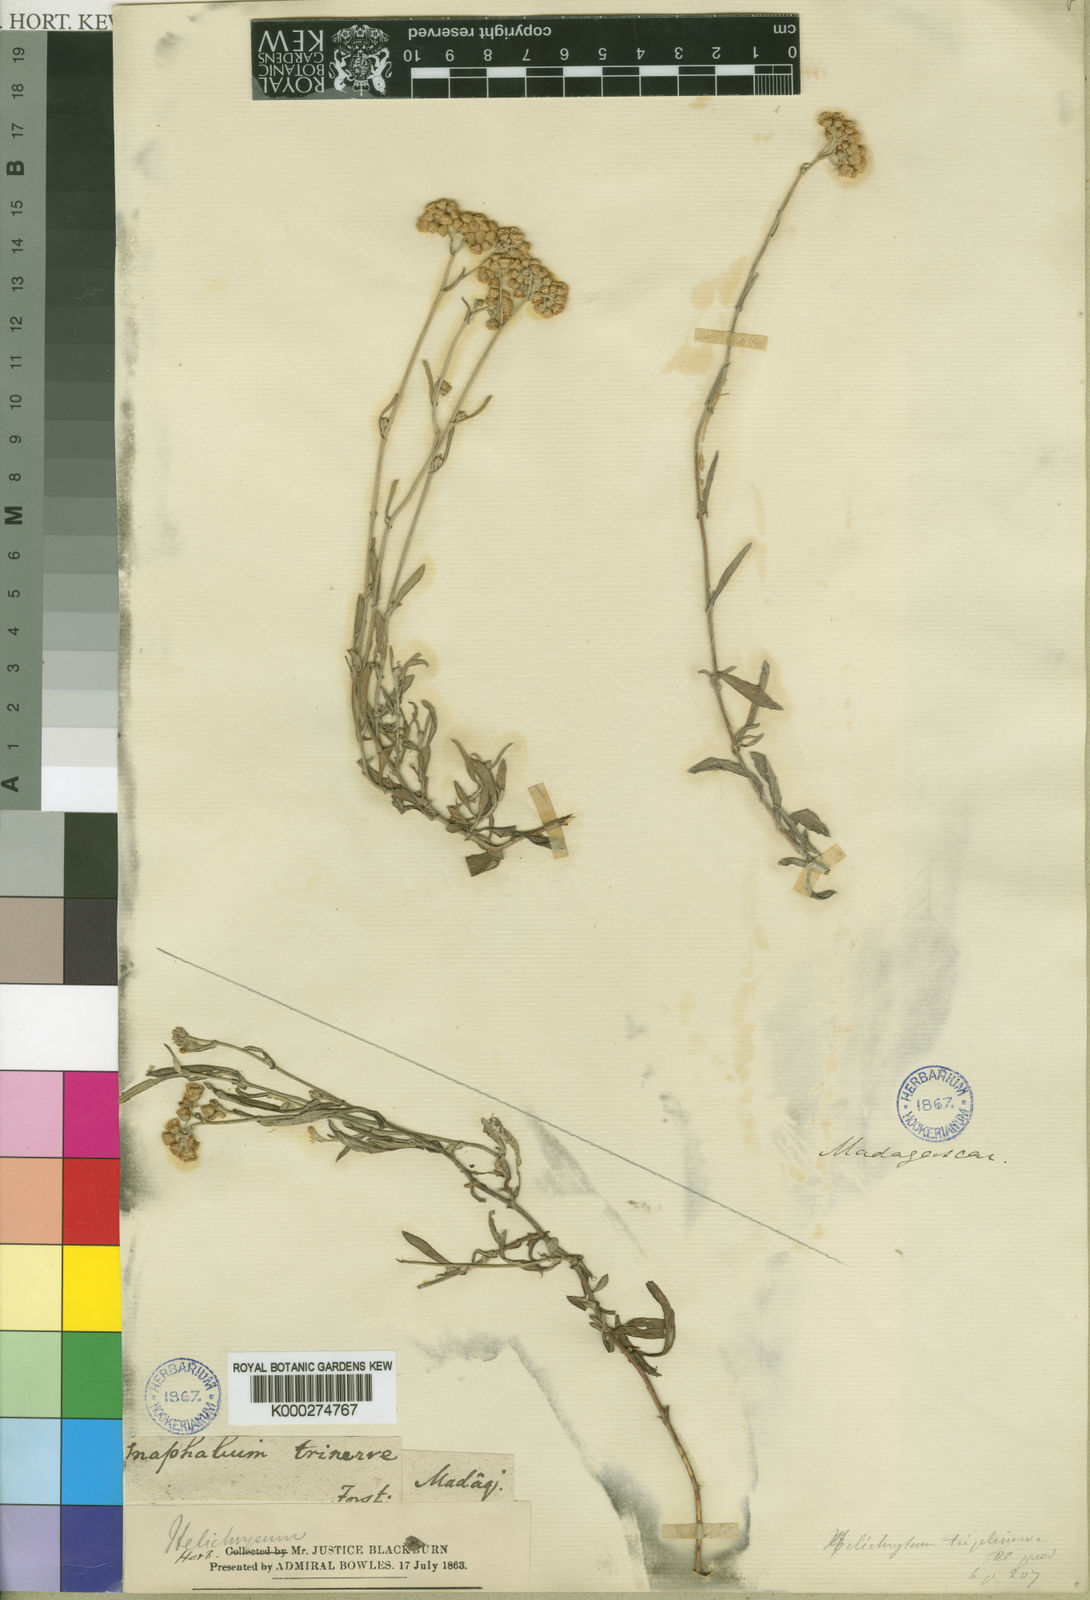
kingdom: Plantae
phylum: Tracheophyta
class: Magnoliopsida
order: Asterales
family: Asteraceae
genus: Helichrysum
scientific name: Helichrysum triplinerve
